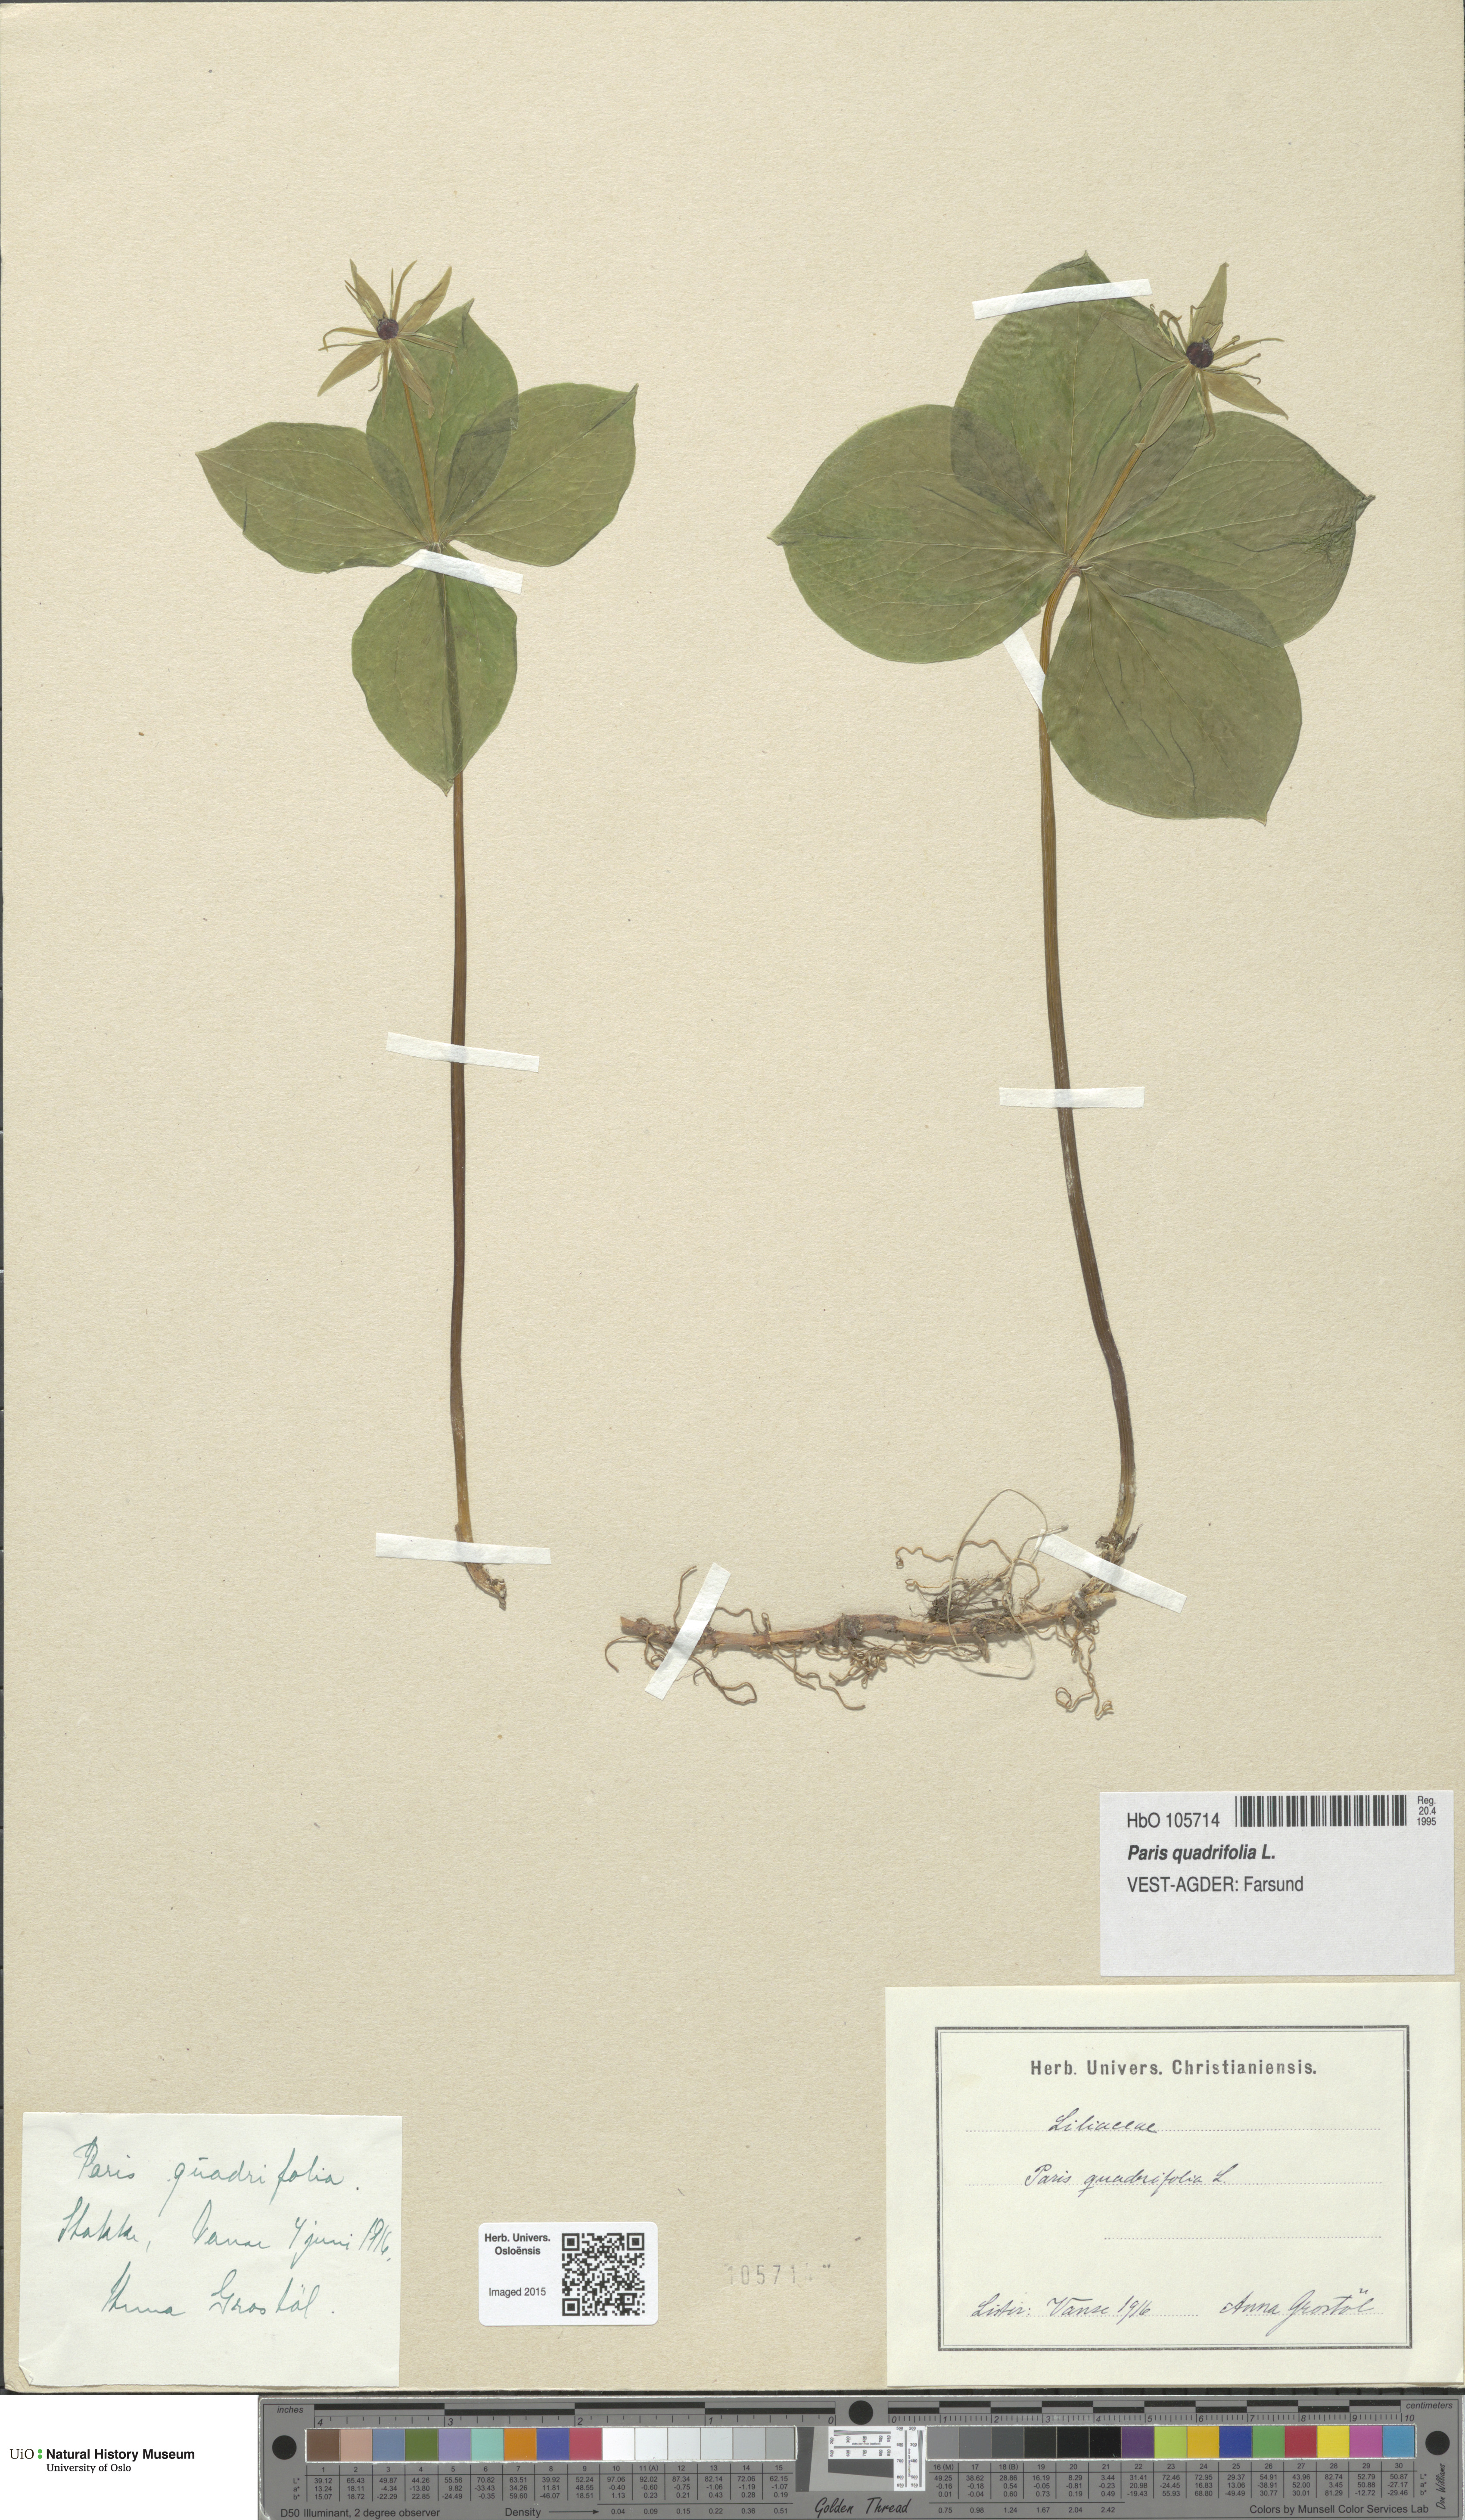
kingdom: Plantae
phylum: Tracheophyta
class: Liliopsida
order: Liliales
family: Melanthiaceae
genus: Paris
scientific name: Paris quadrifolia
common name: Herb-paris
